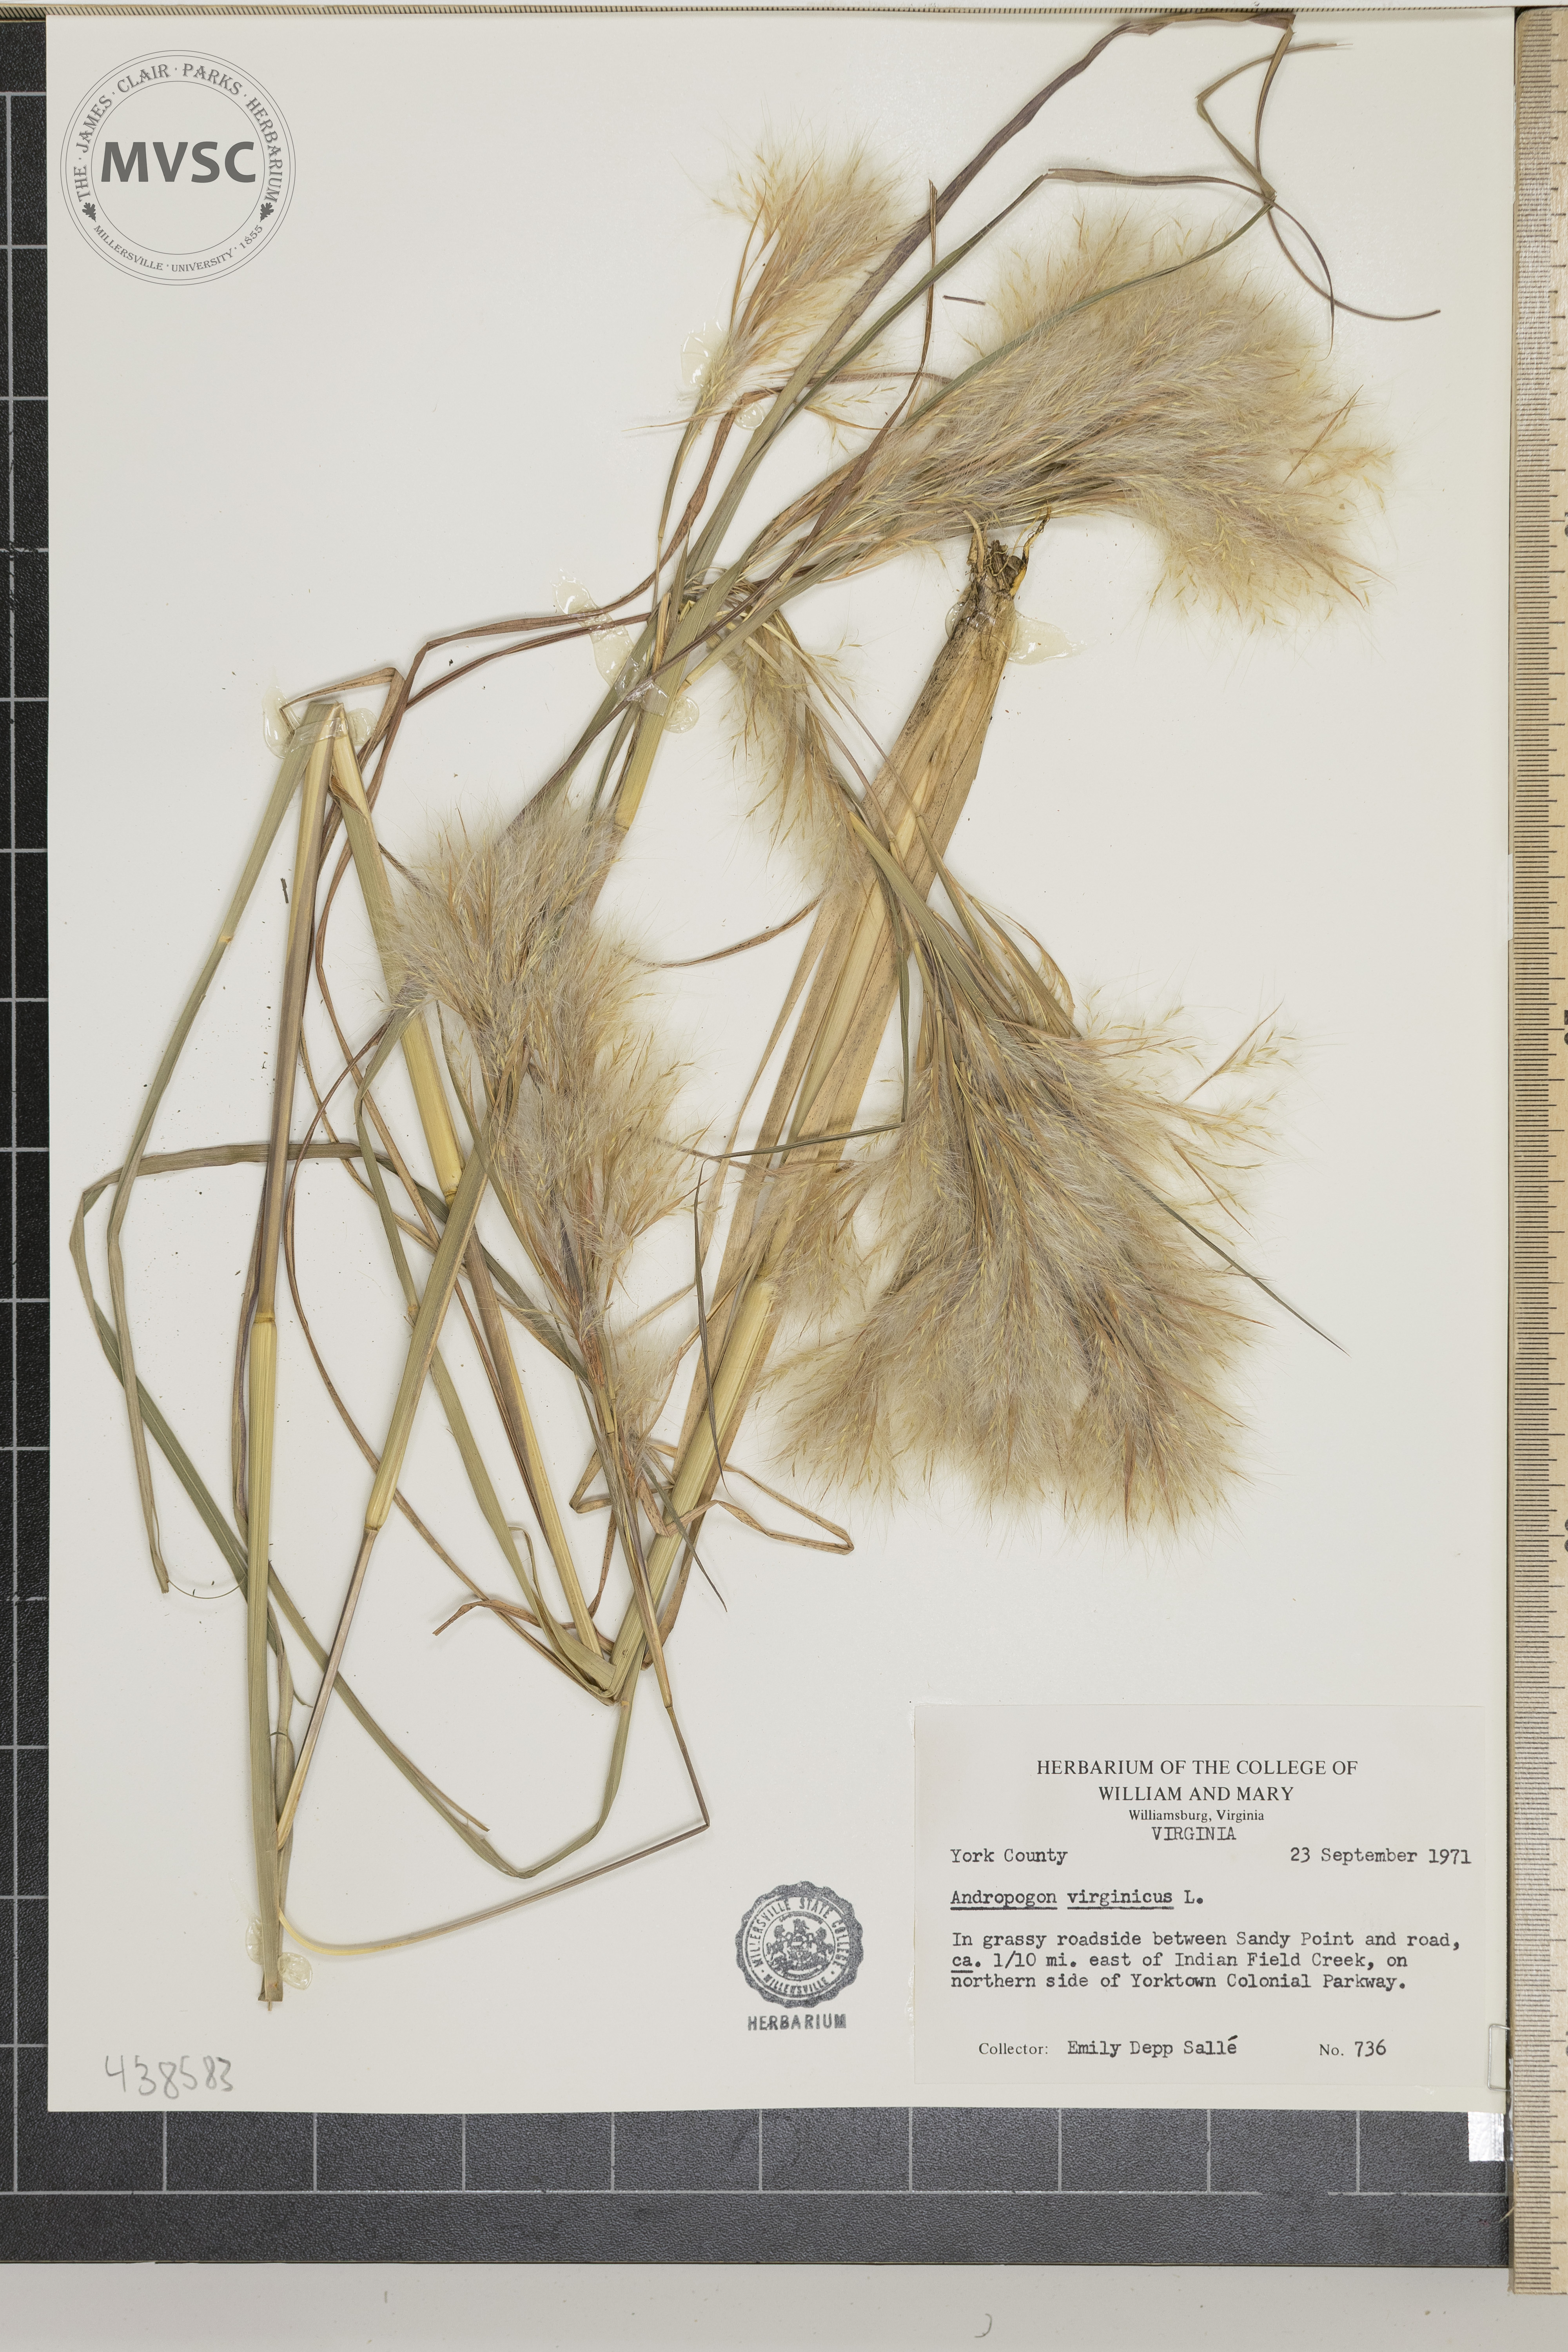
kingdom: Plantae
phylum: Tracheophyta
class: Liliopsida
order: Poales
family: Poaceae
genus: Andropogon
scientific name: Andropogon virginicus
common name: Broomsedge bluestem
